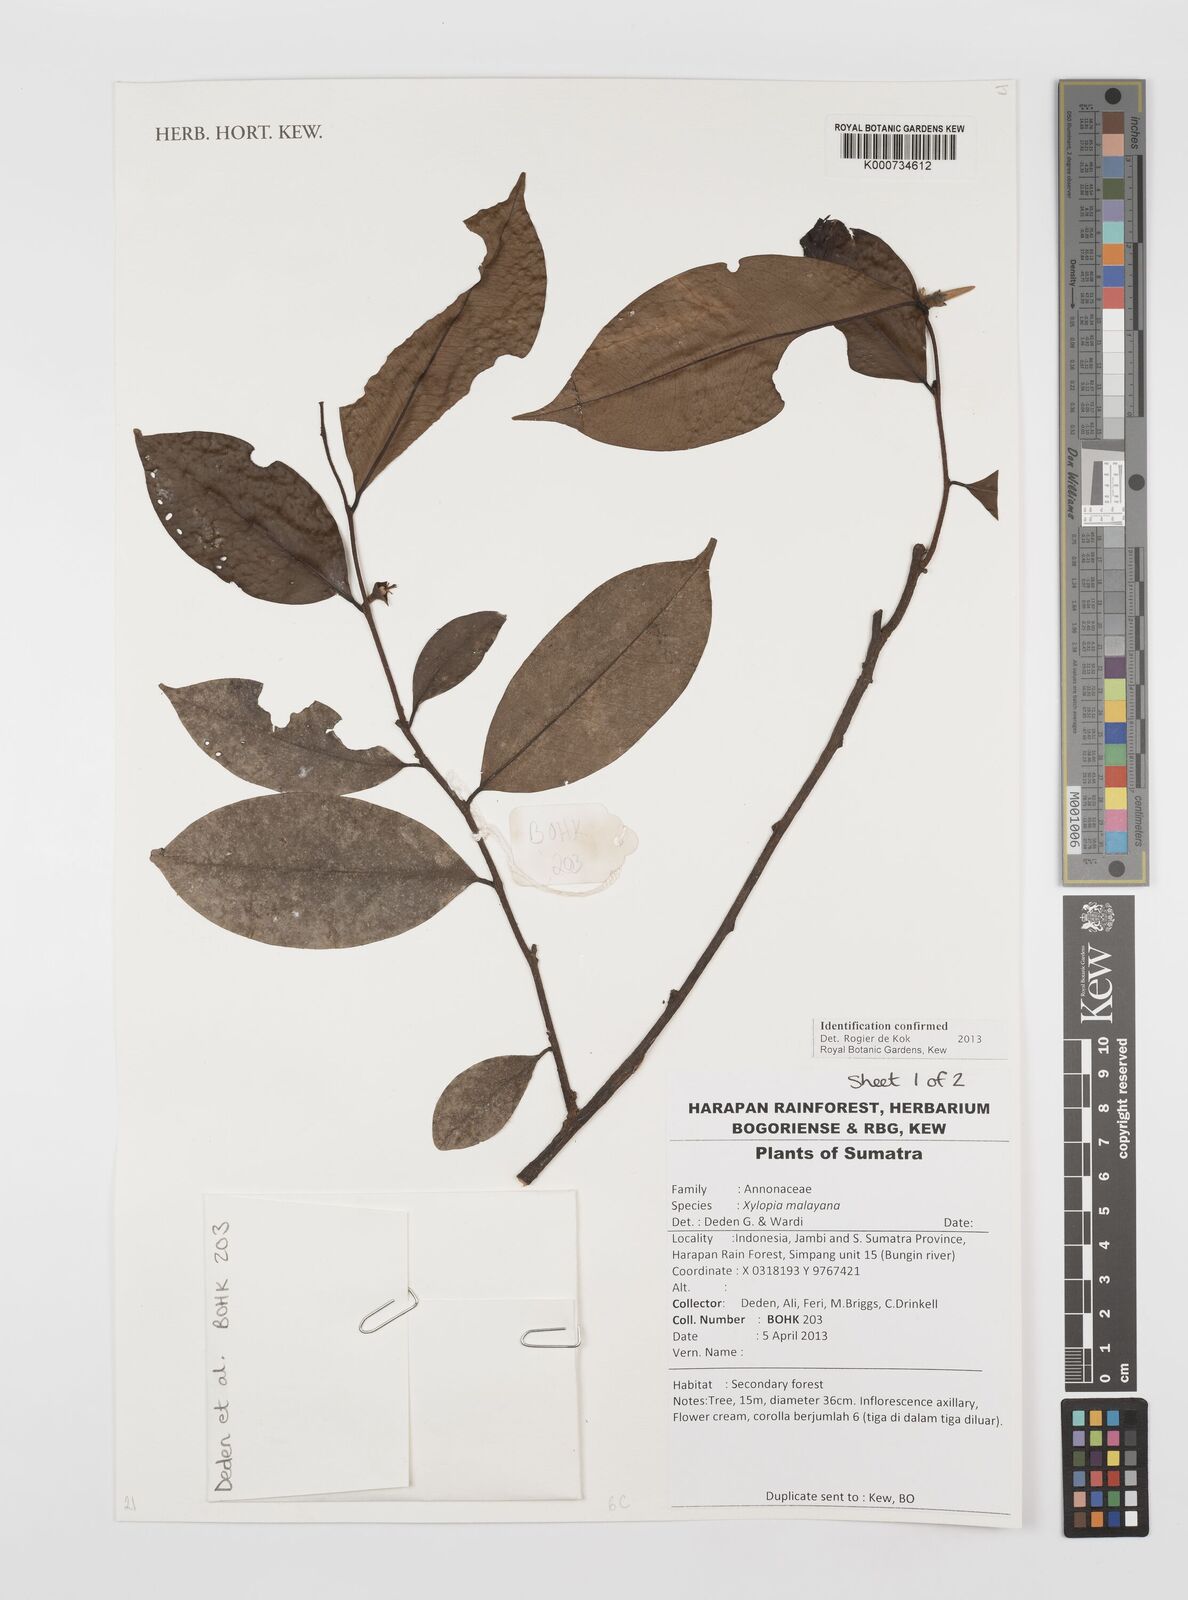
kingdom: Plantae
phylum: Tracheophyta
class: Magnoliopsida
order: Magnoliales
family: Annonaceae
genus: Xylopia
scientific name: Xylopia malayana
